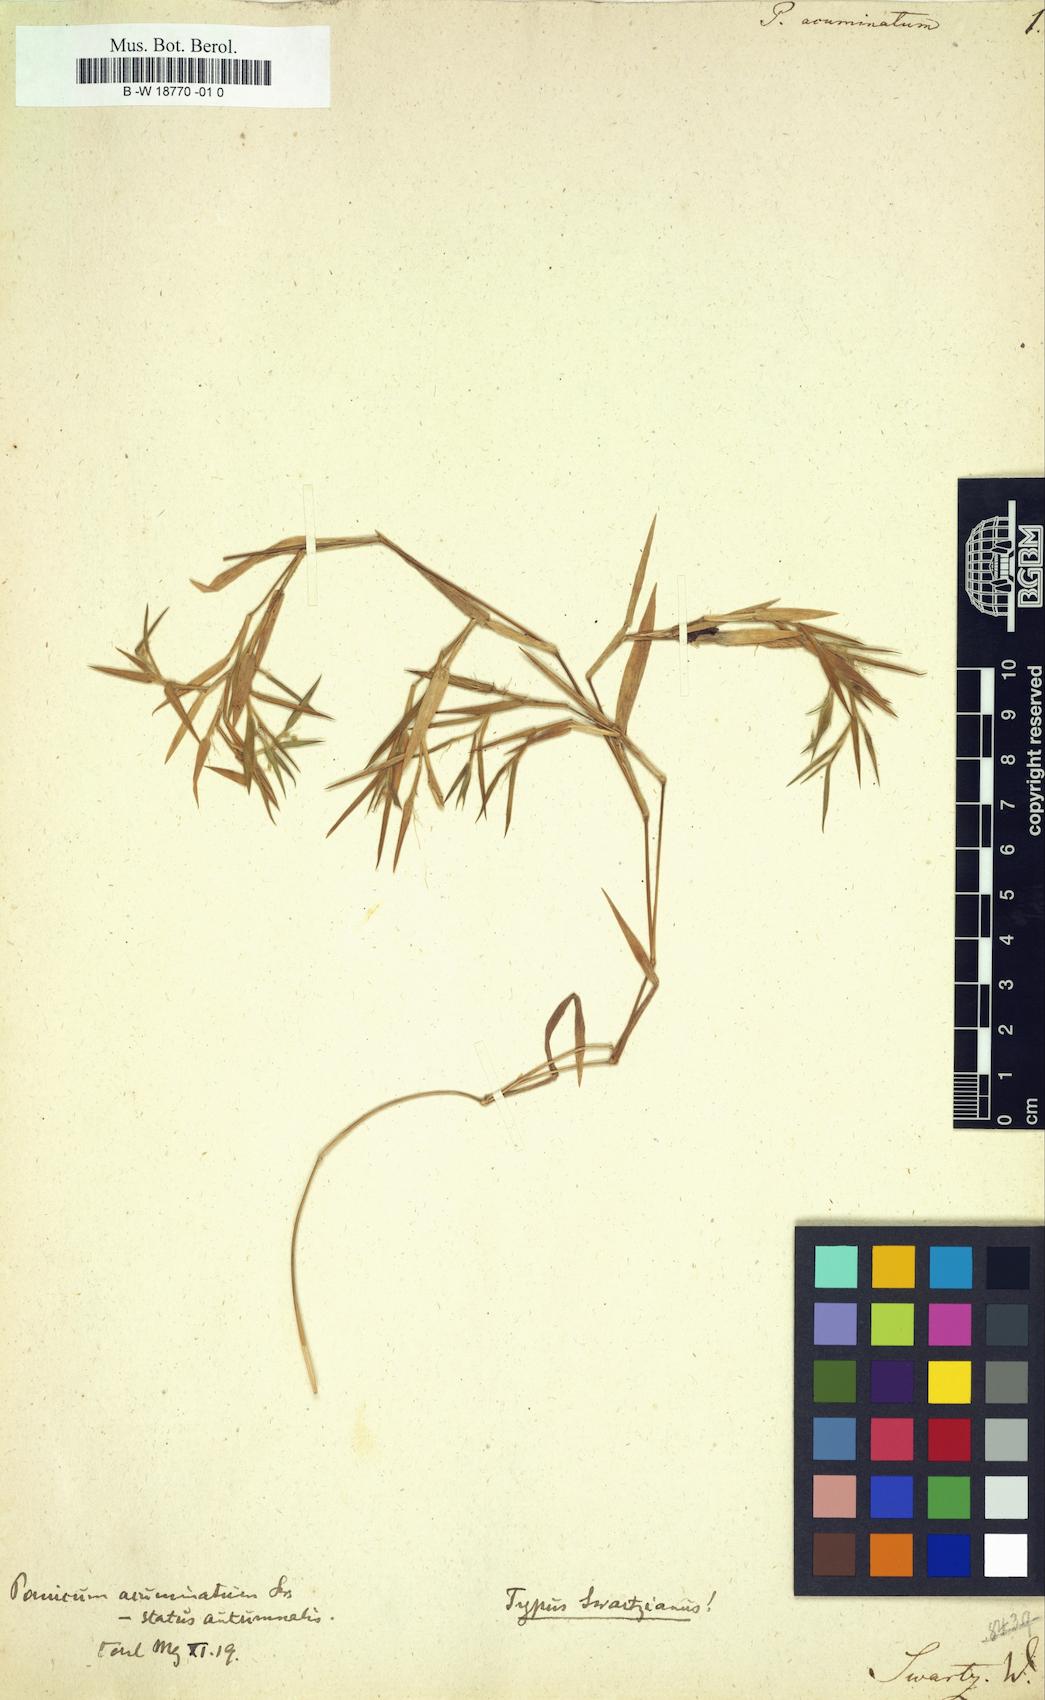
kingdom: Plantae
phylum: Tracheophyta
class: Liliopsida
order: Poales
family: Poaceae
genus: Dichanthelium
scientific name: Dichanthelium acuminatum
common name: Hairy panic grass
